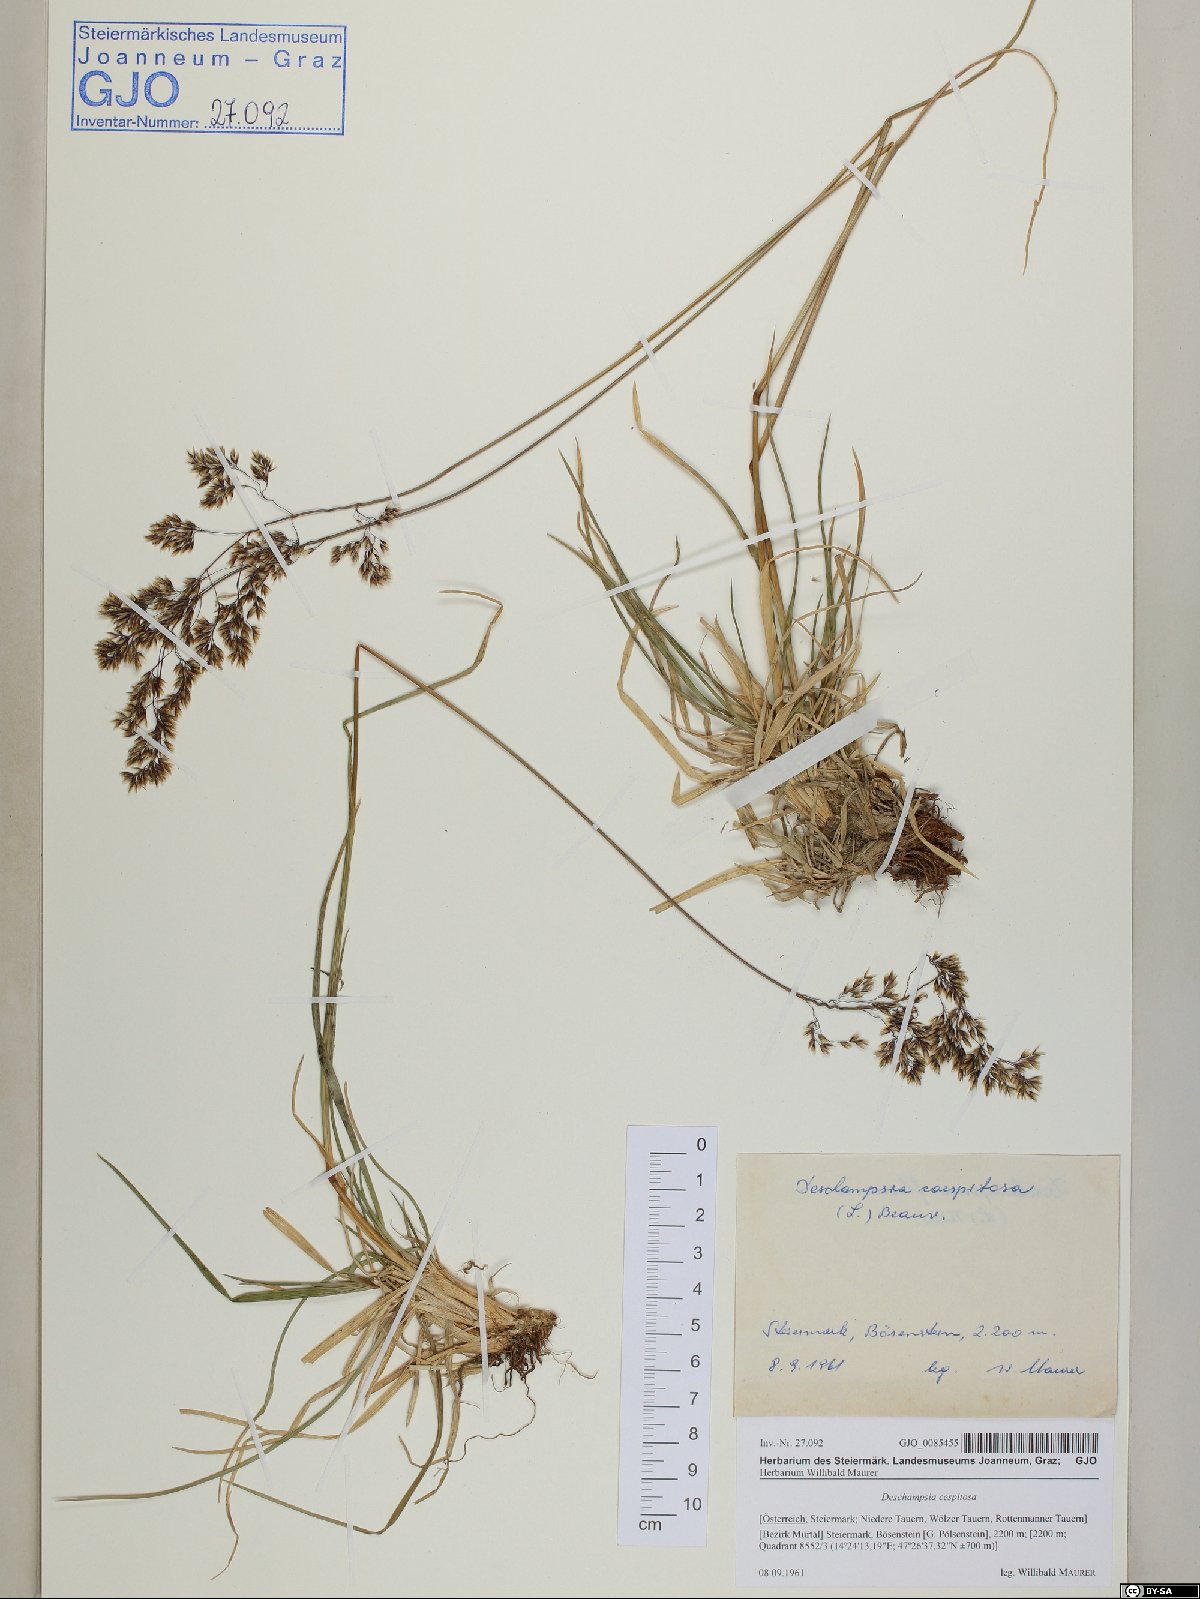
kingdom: Plantae
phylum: Tracheophyta
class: Liliopsida
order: Poales
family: Poaceae
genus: Deschampsia
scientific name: Deschampsia cespitosa
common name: Tufted hair-grass
